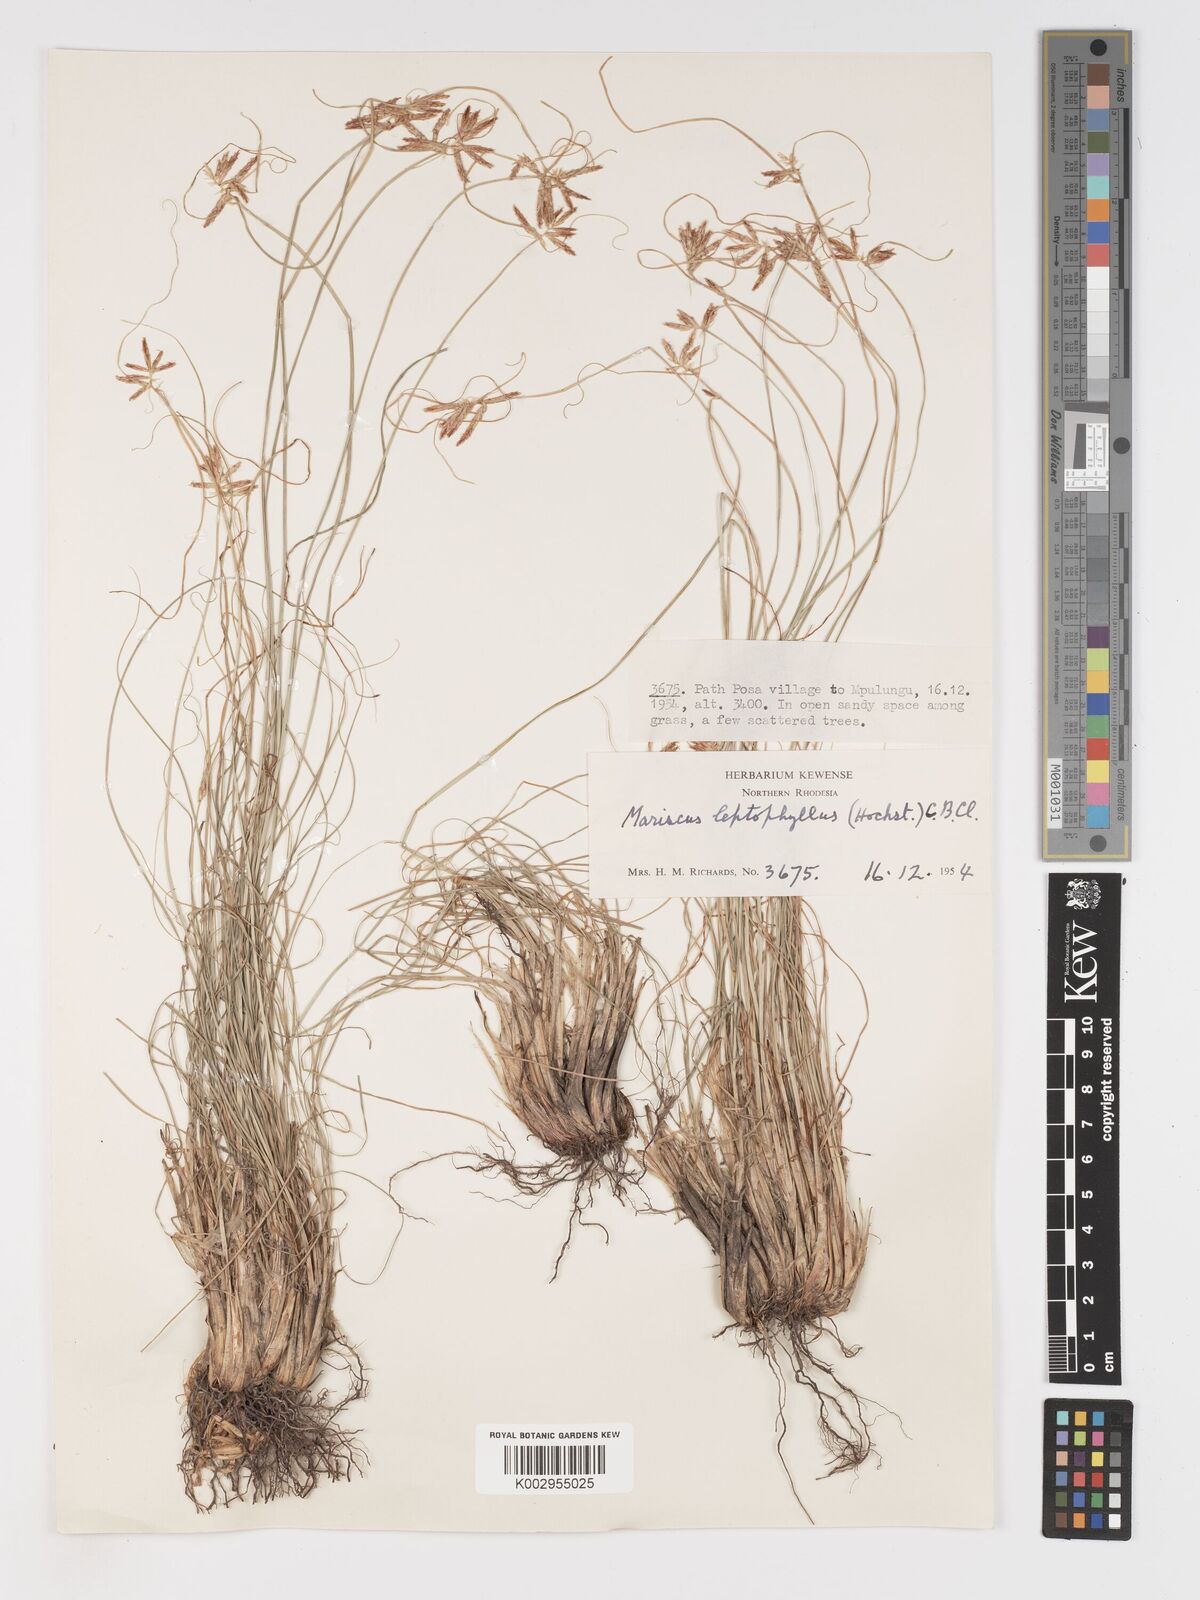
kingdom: Plantae
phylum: Tracheophyta
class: Liliopsida
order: Poales
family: Cyperaceae
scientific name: Cyperaceae
